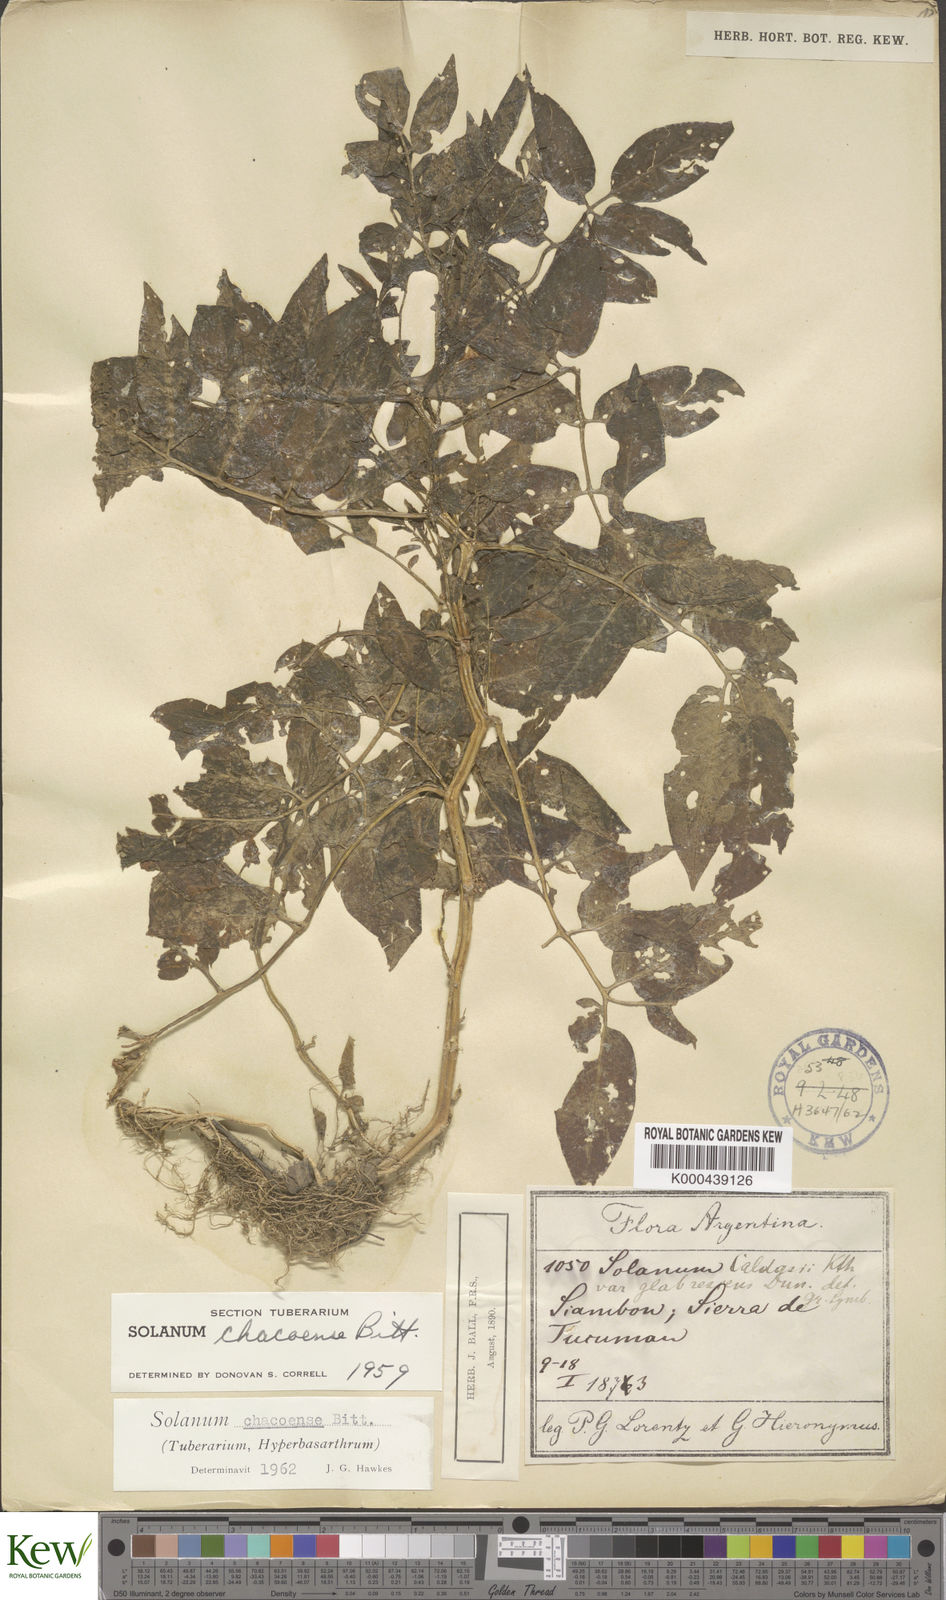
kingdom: Plantae
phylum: Tracheophyta
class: Magnoliopsida
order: Solanales
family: Solanaceae
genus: Solanum
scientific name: Solanum chacoense
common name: Chaco potato
